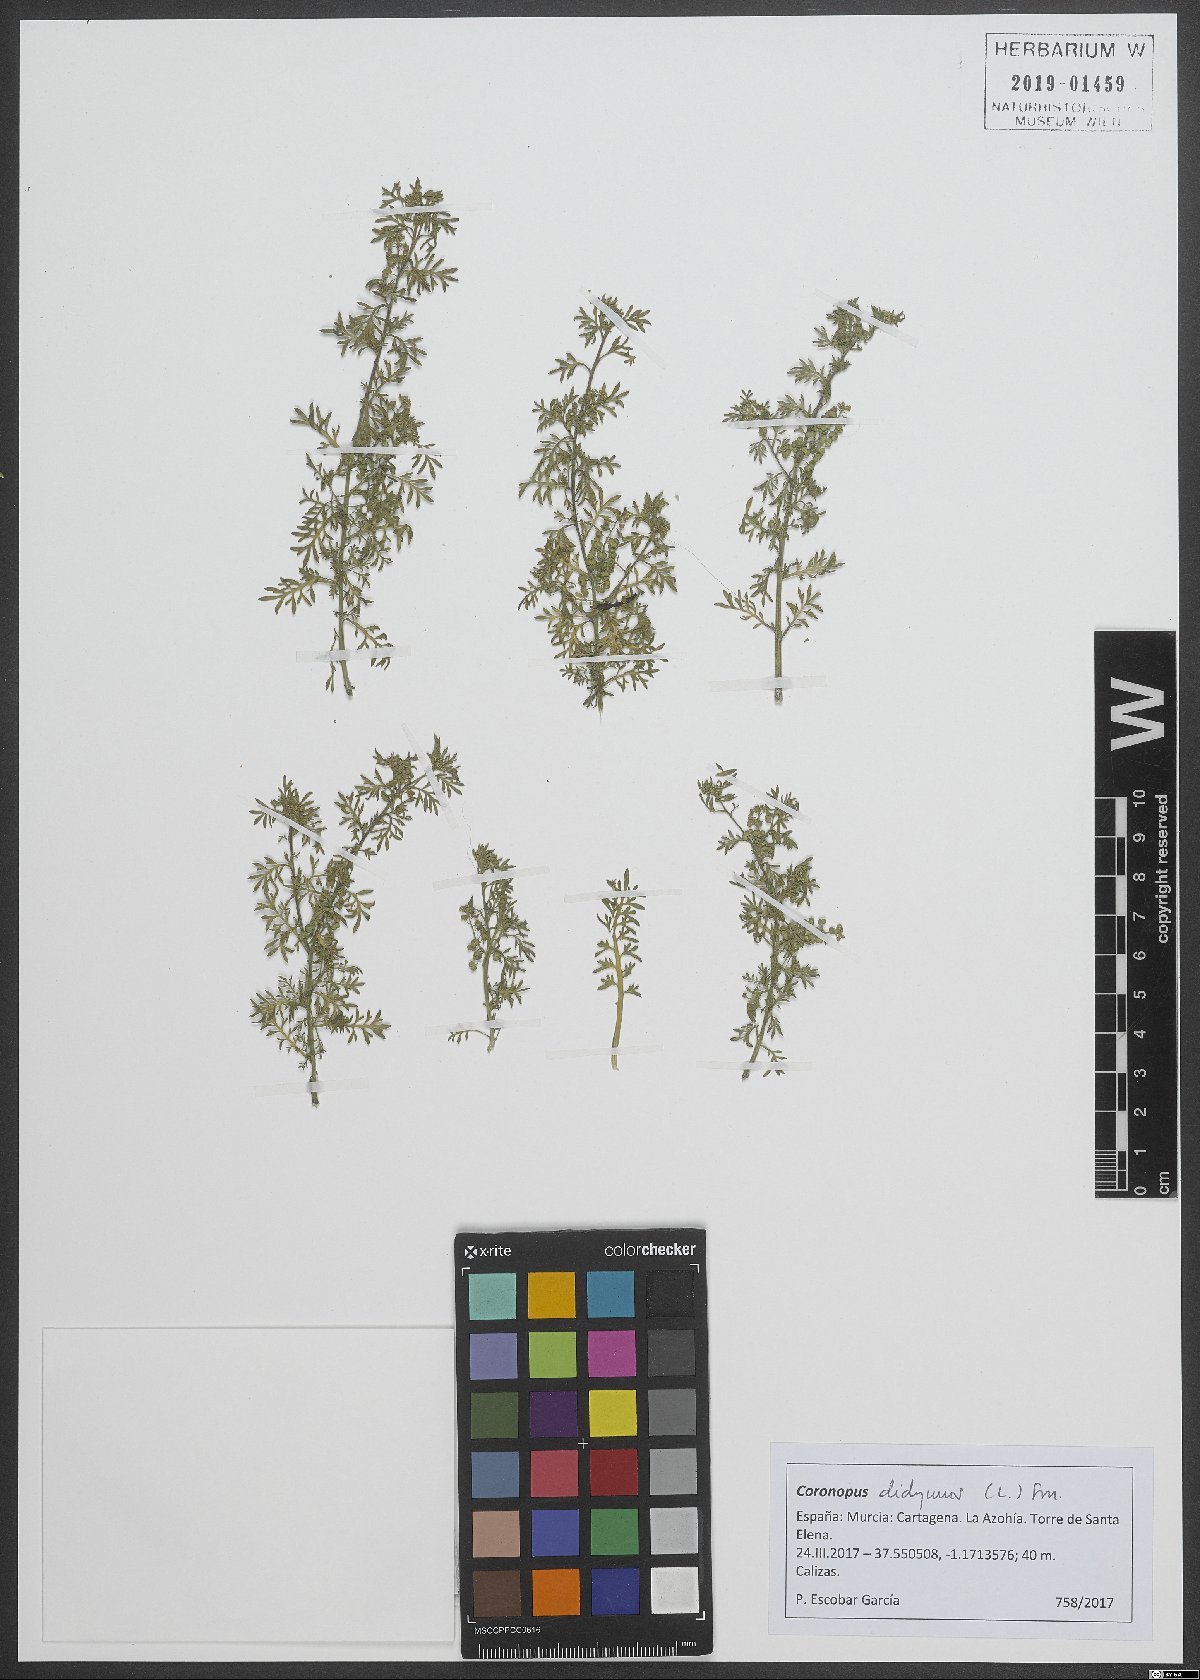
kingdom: Plantae
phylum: Tracheophyta
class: Magnoliopsida
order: Brassicales
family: Brassicaceae
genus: Lepidium
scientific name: Lepidium didymum
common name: Lesser swinecress
